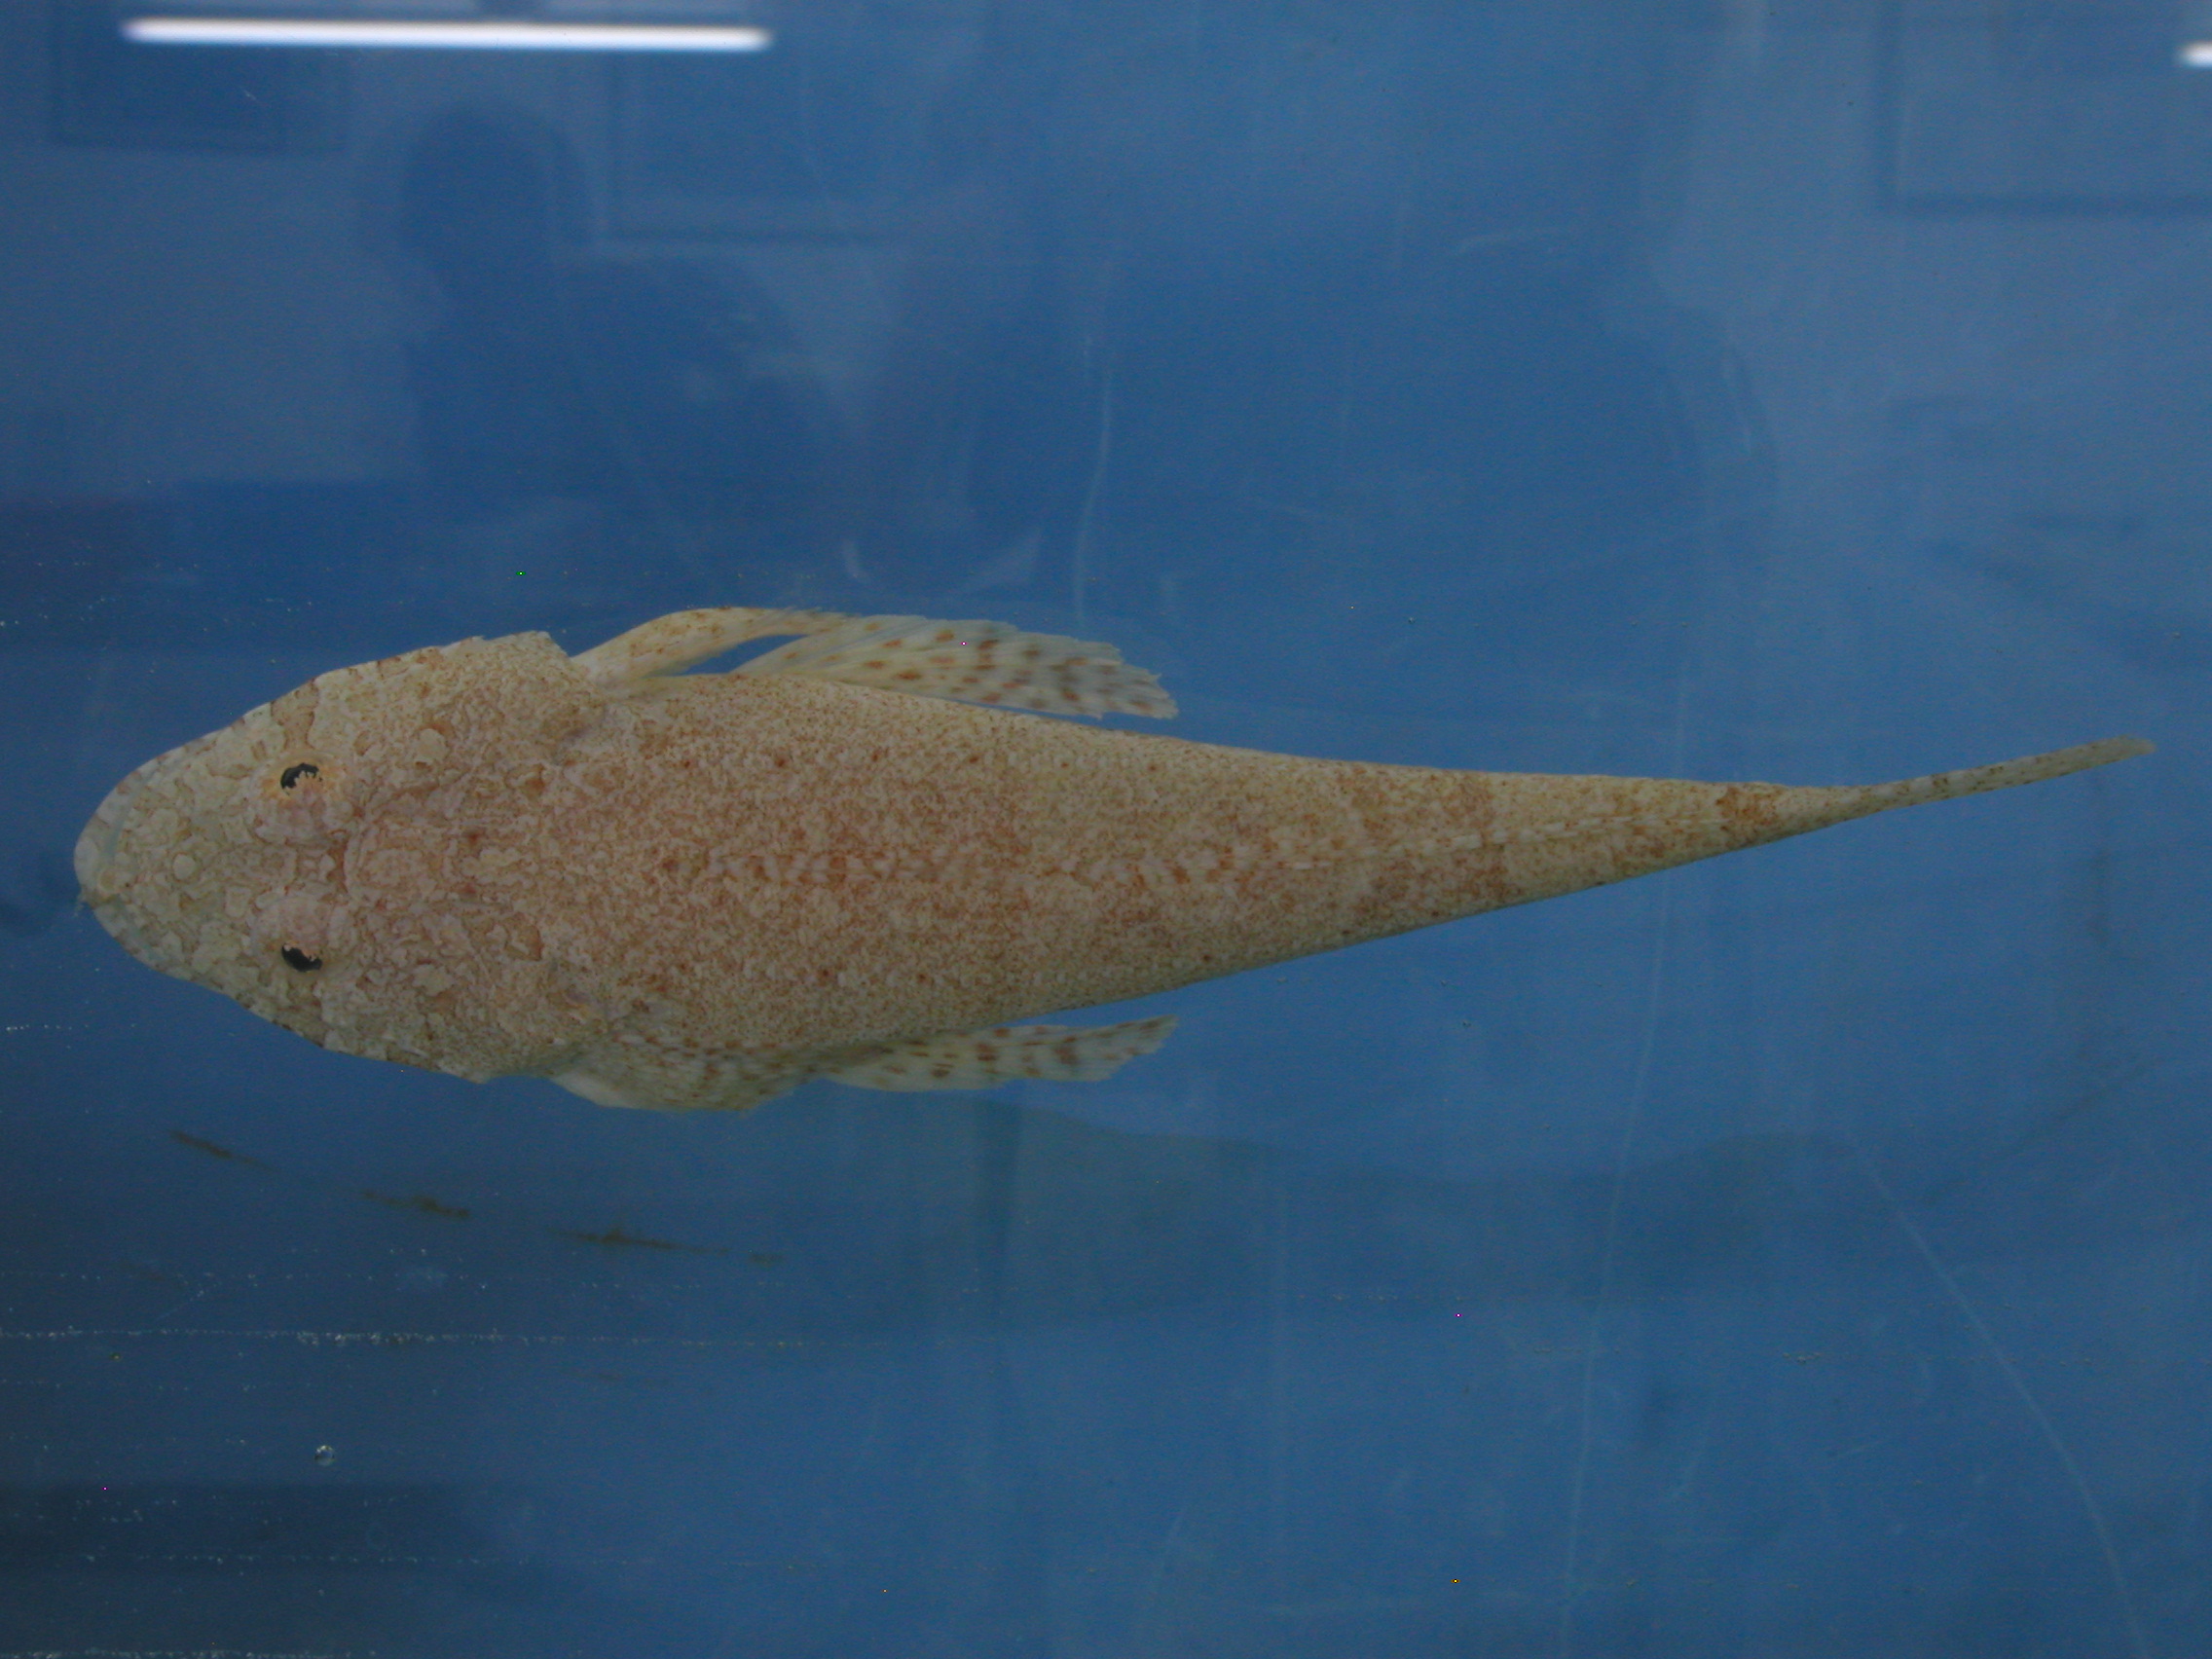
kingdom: Animalia
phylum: Chordata
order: Scorpaeniformes
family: Platycephalidae
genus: Sunagocia
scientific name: Sunagocia arenicola
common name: Broadhead flathead
